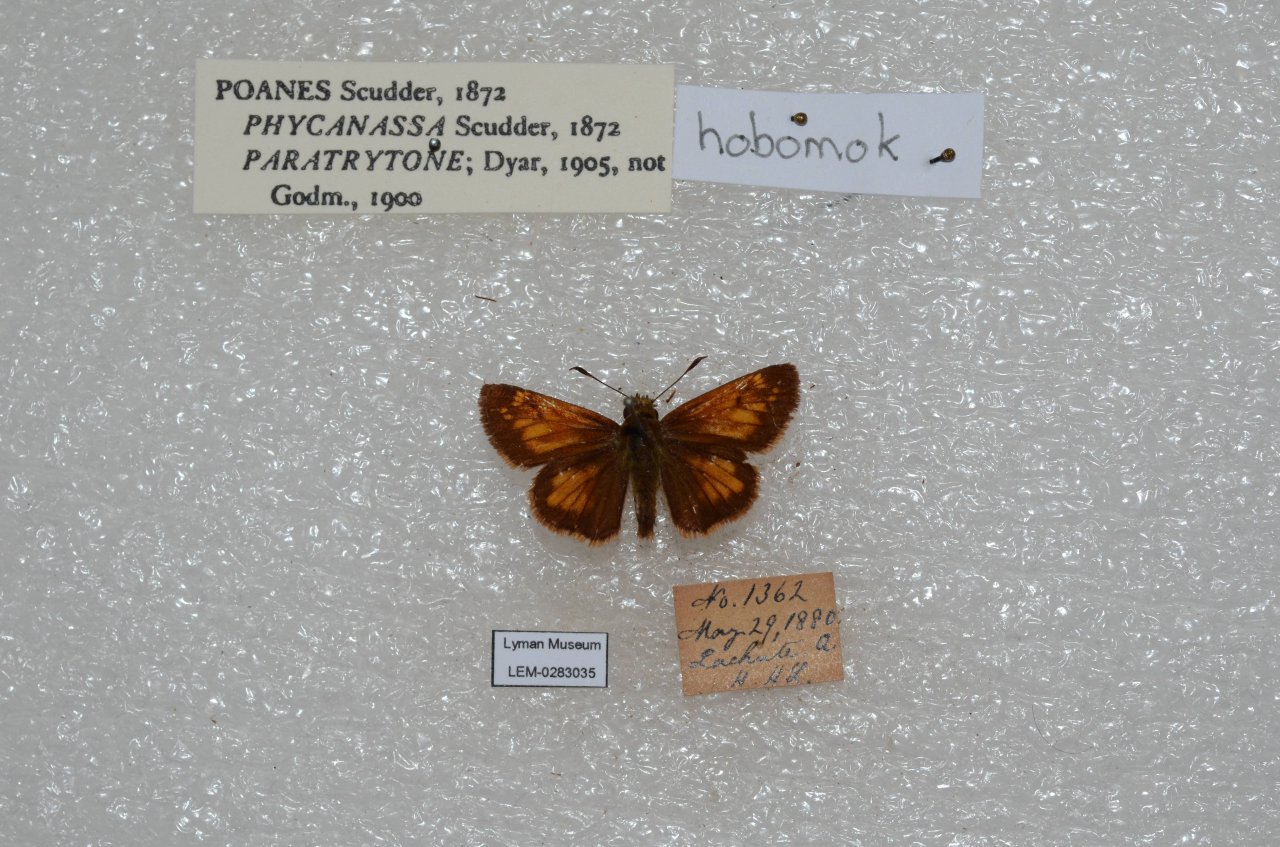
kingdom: Animalia
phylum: Arthropoda
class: Insecta
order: Lepidoptera
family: Hesperiidae
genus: Lon
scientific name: Lon hobomok
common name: Hobomok Skipper
